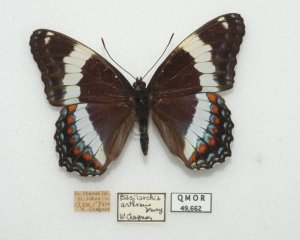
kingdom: Animalia
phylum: Arthropoda
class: Insecta
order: Lepidoptera
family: Nymphalidae
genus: Limenitis
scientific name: Limenitis arthemis
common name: Red-spotted Admiral
